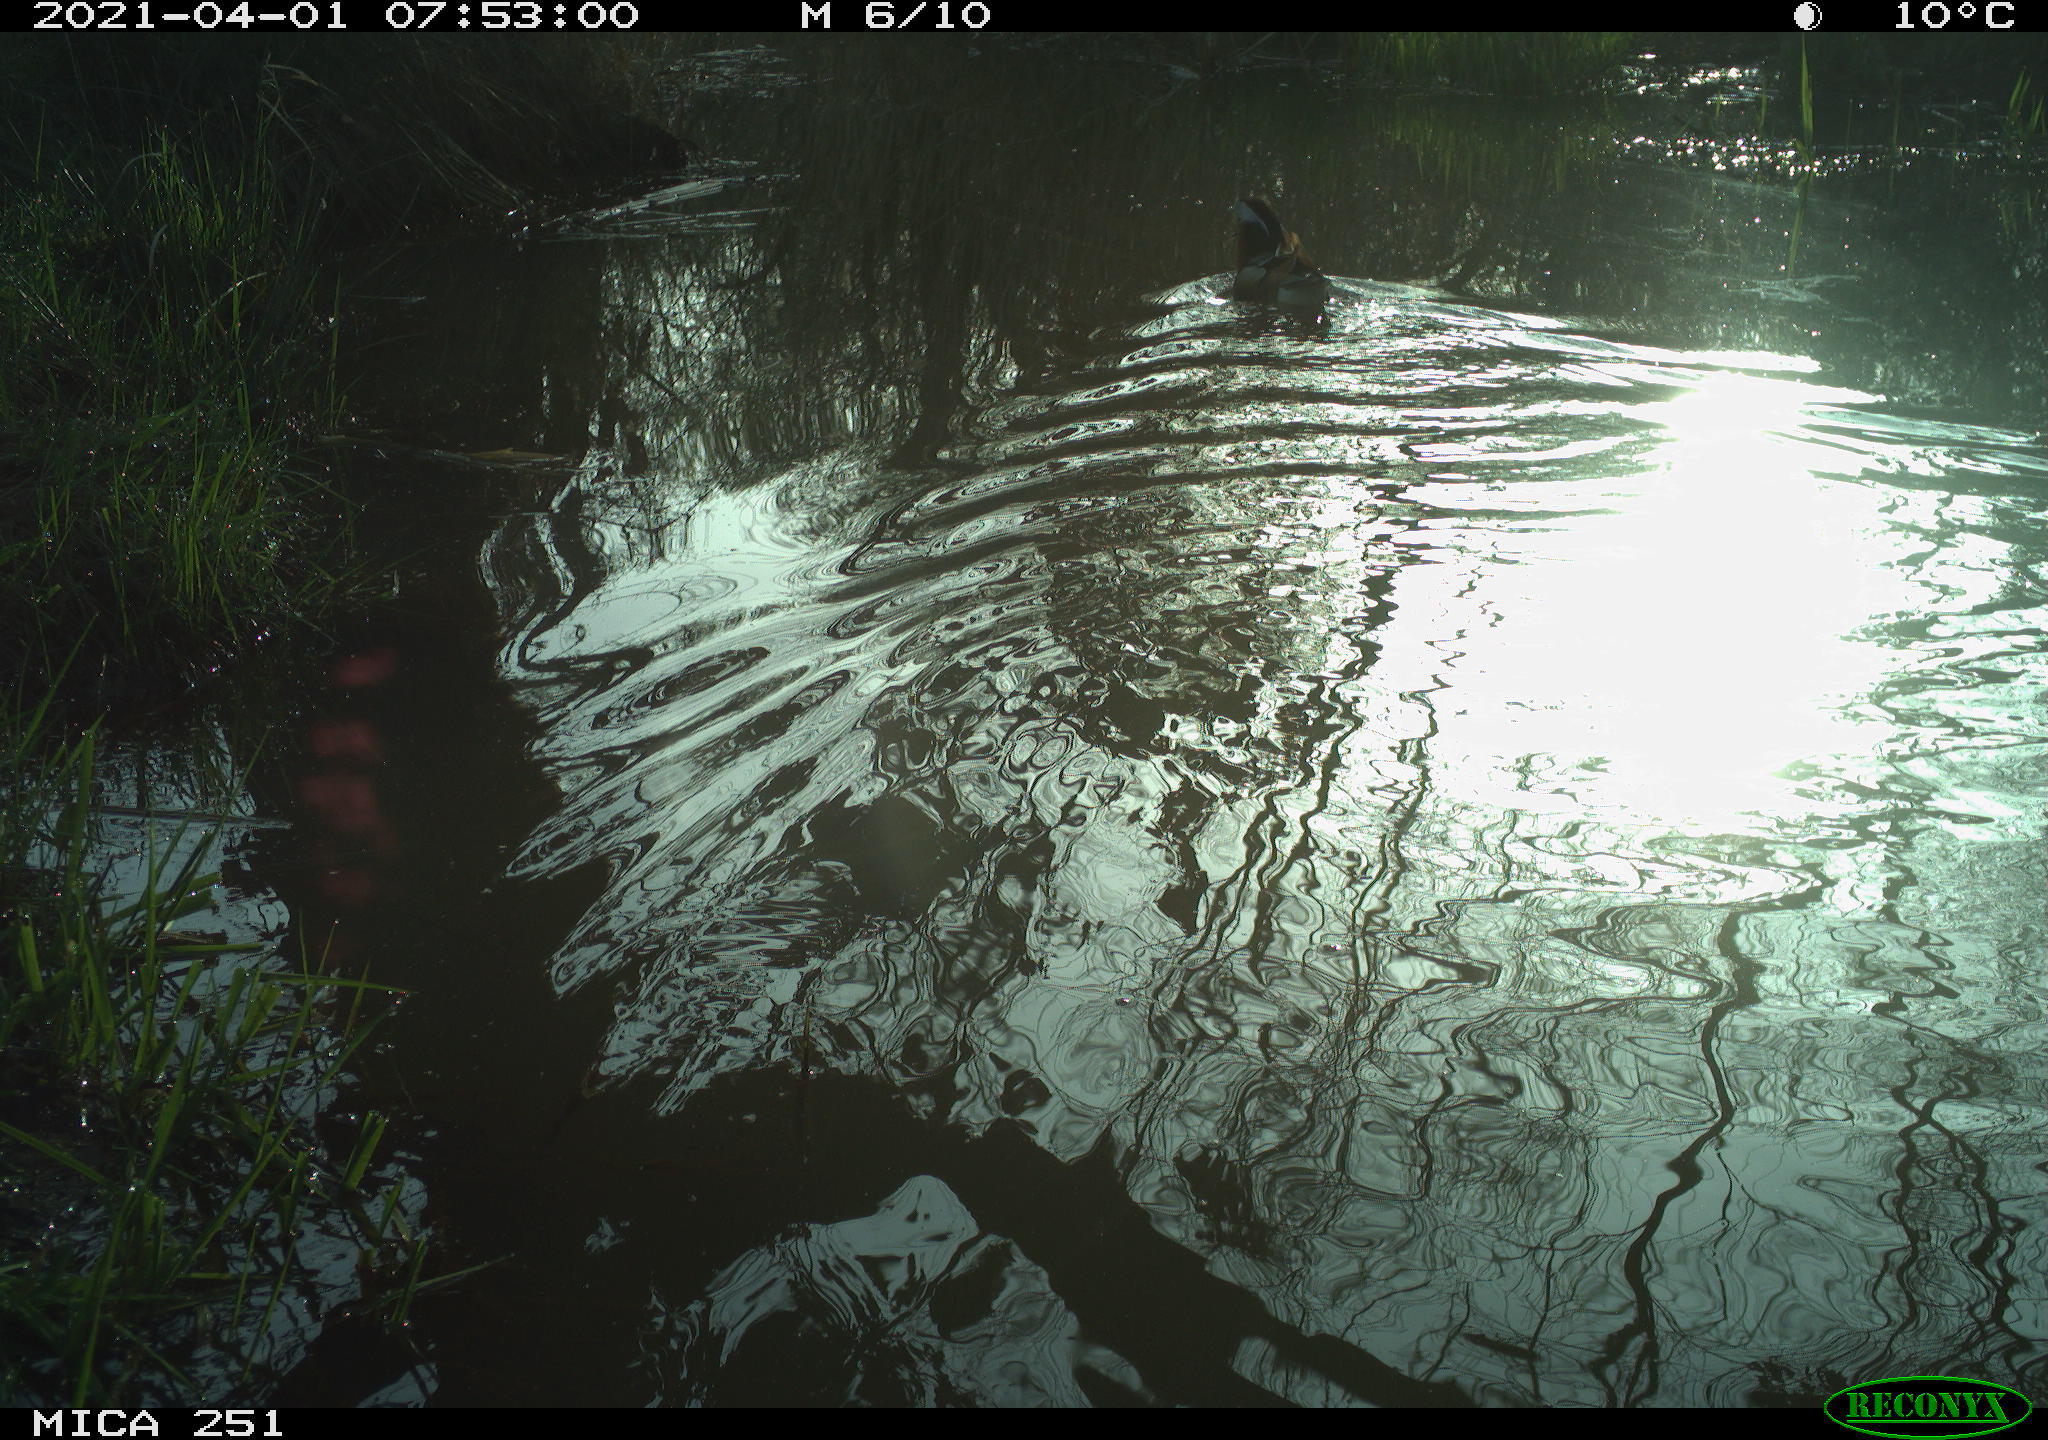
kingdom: Animalia
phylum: Chordata
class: Aves
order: Anseriformes
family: Anatidae
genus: Aix
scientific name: Aix galericulata
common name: Mandarin duck
